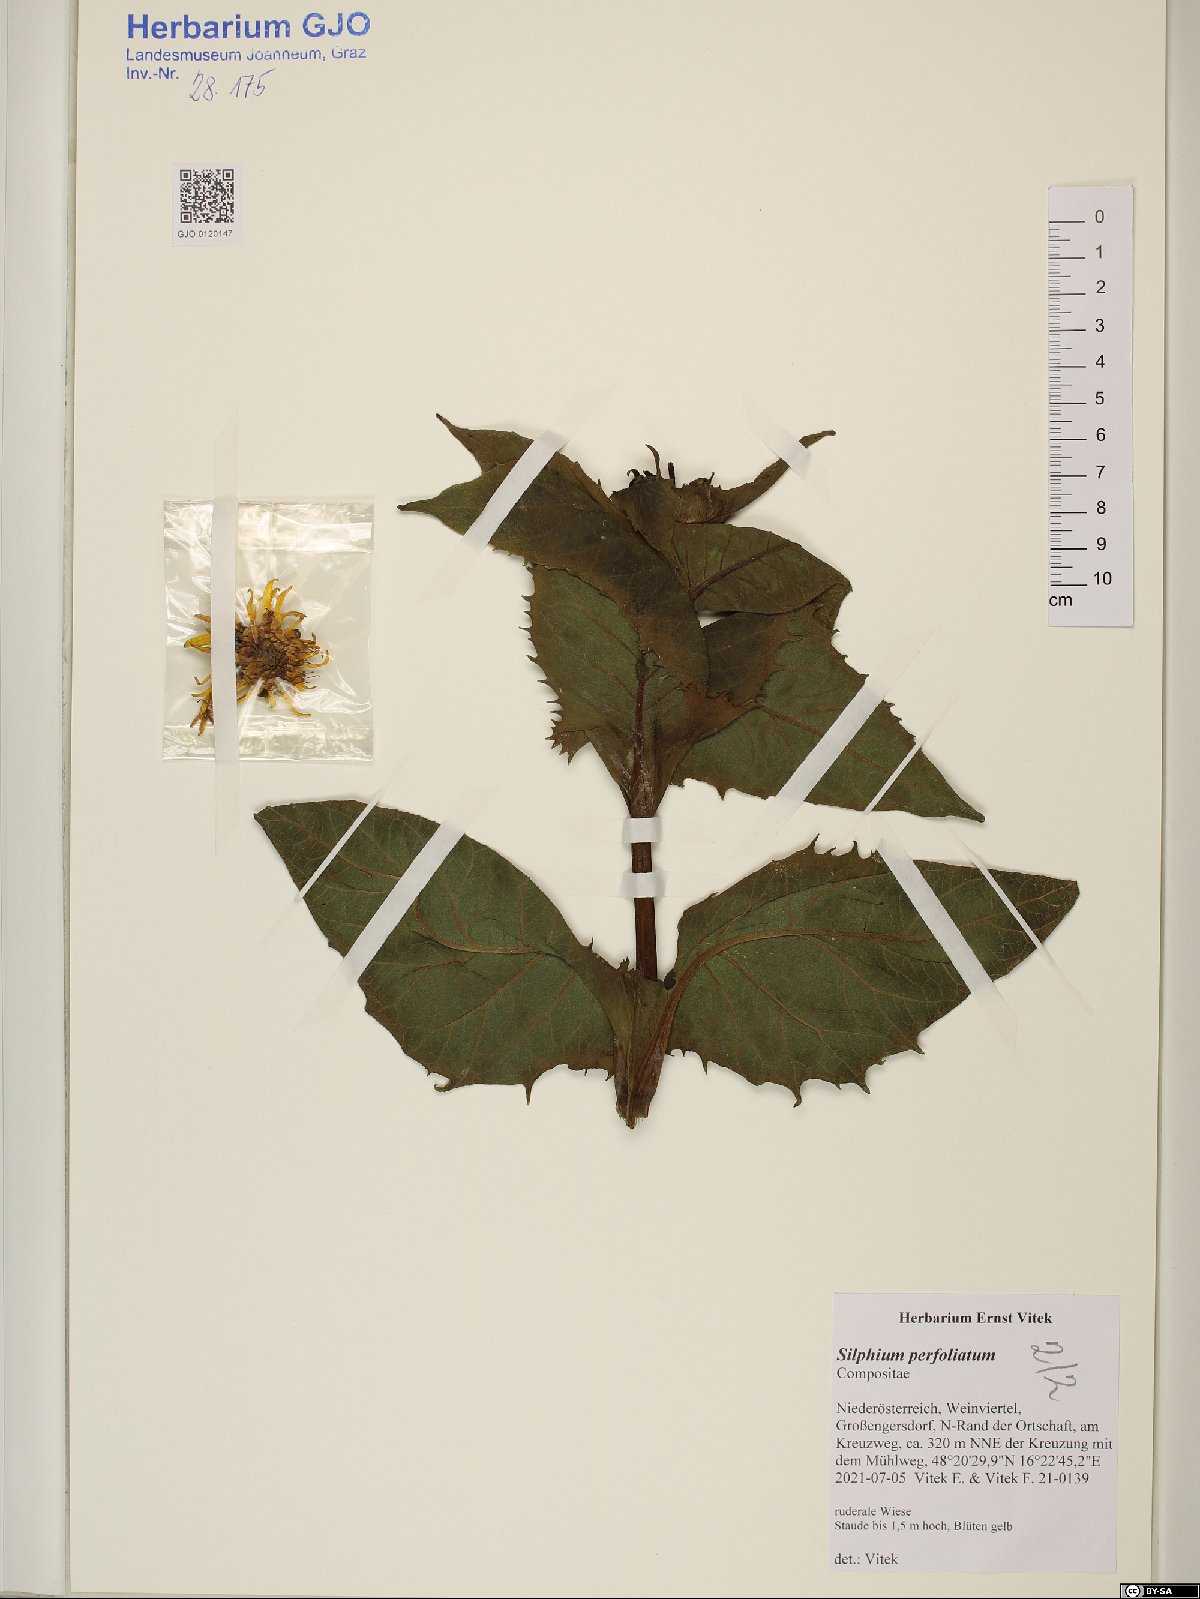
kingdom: Plantae
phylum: Tracheophyta
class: Magnoliopsida
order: Asterales
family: Asteraceae
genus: Silphium
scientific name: Silphium perfoliatum
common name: Cup-plant
